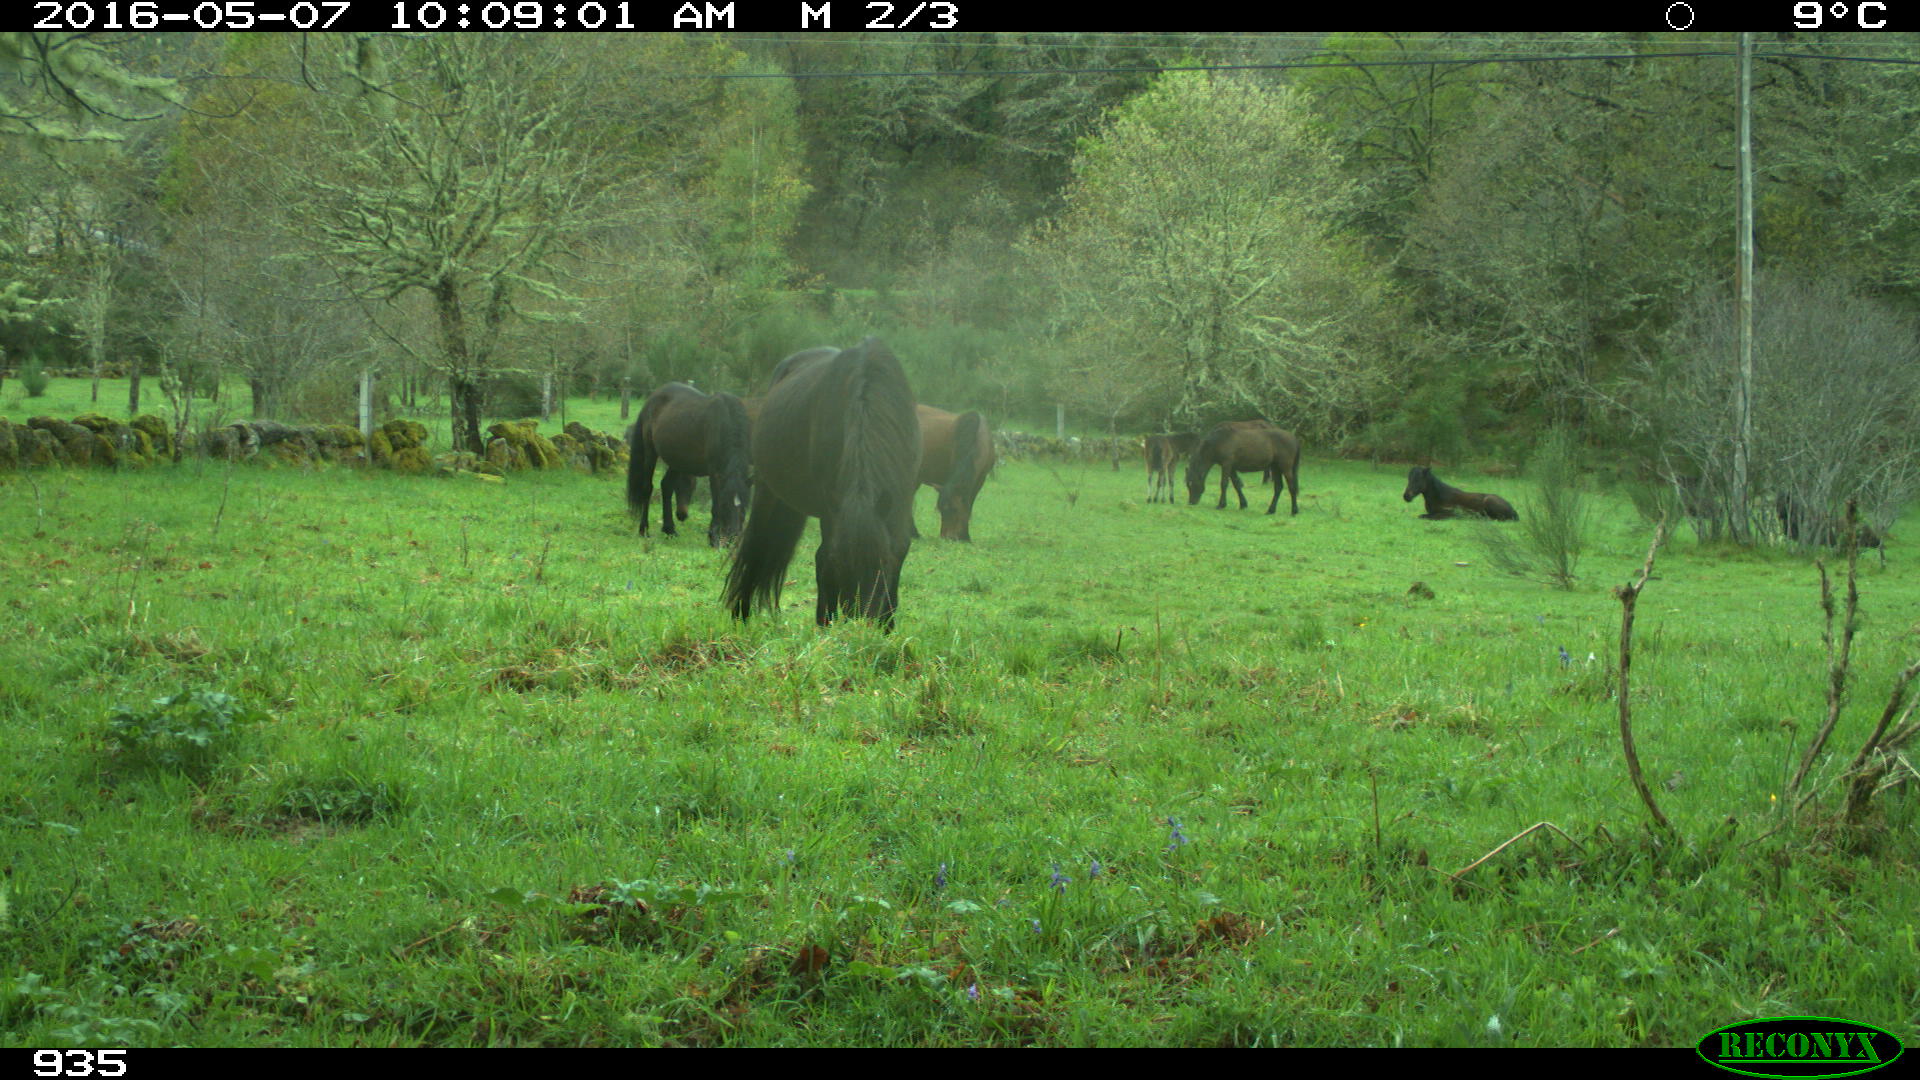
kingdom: Animalia
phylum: Chordata
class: Mammalia
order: Perissodactyla
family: Equidae
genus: Equus
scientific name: Equus caballus
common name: Horse
